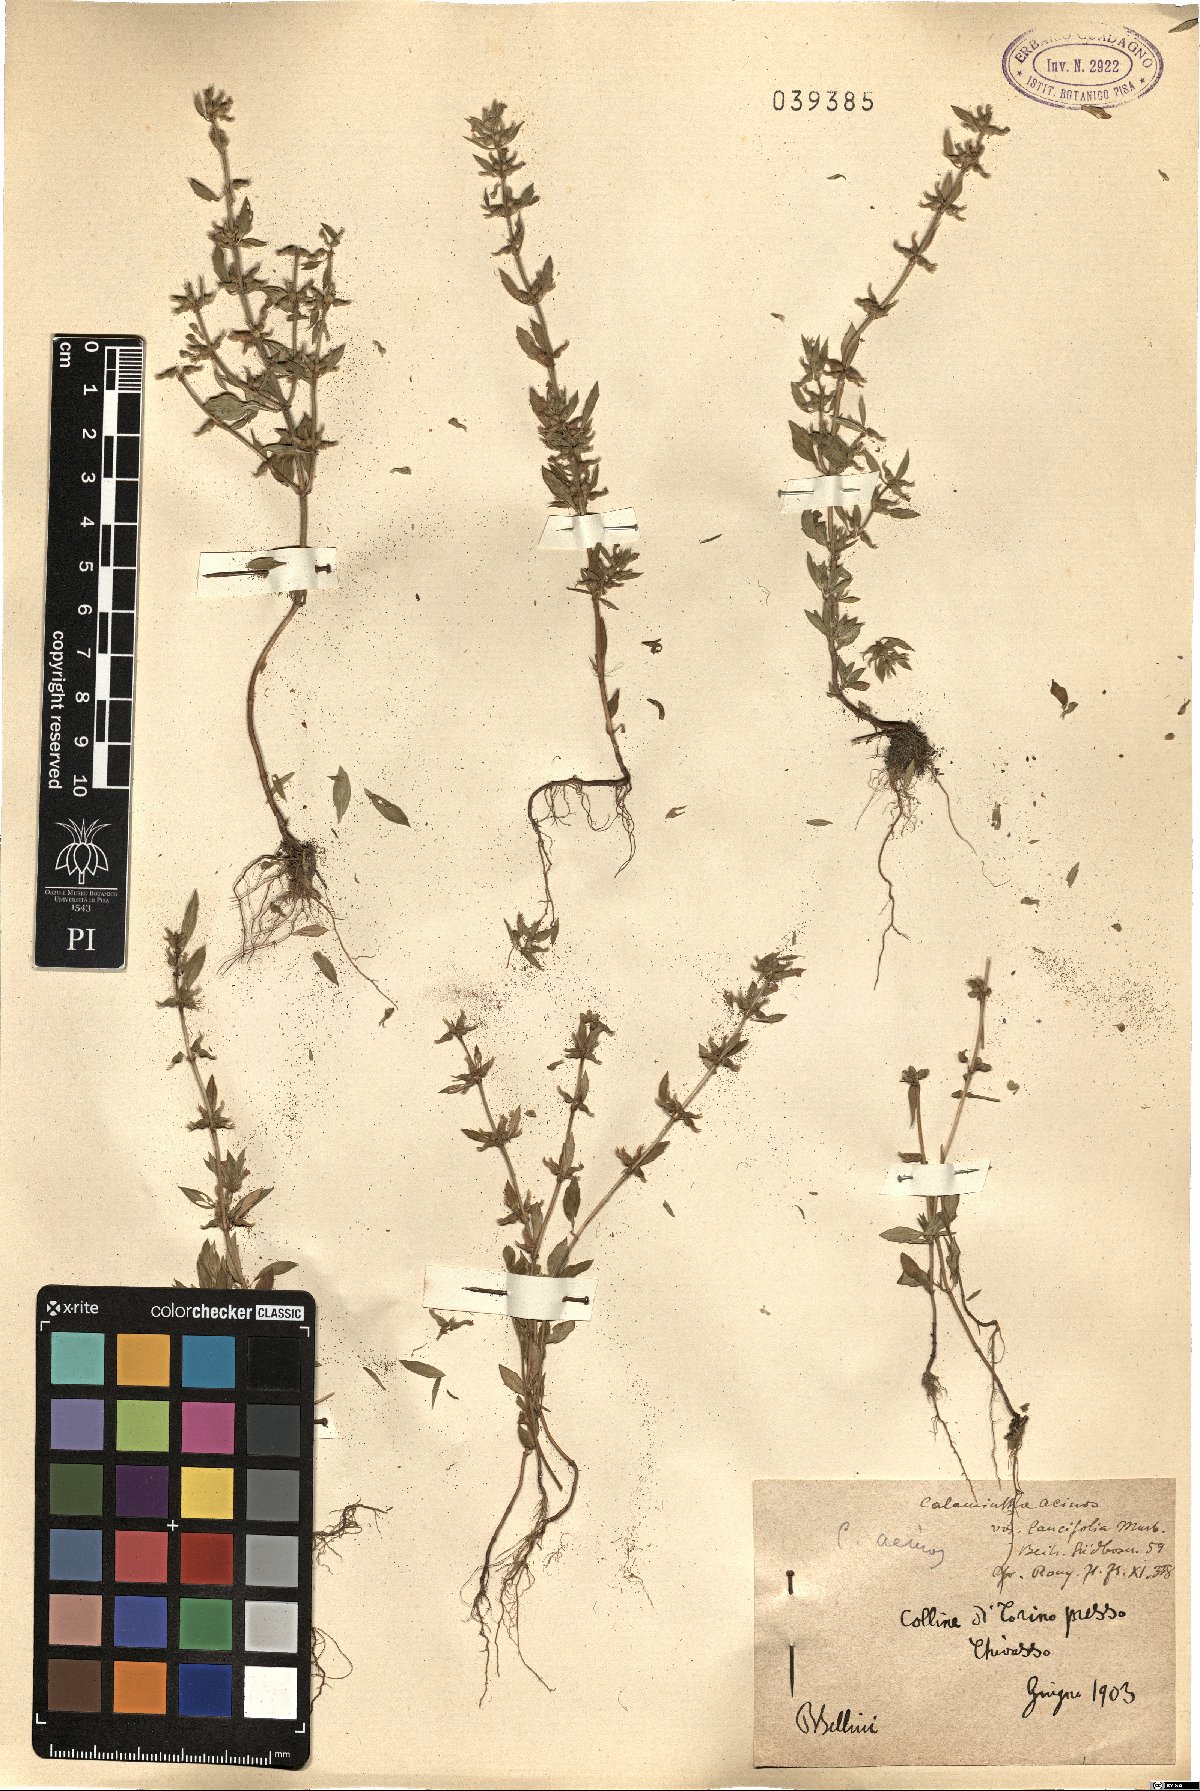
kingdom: Plantae
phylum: Tracheophyta
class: Magnoliopsida
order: Lamiales
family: Lamiaceae
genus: Clinopodium
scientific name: Clinopodium acinos
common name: Basil thyme
